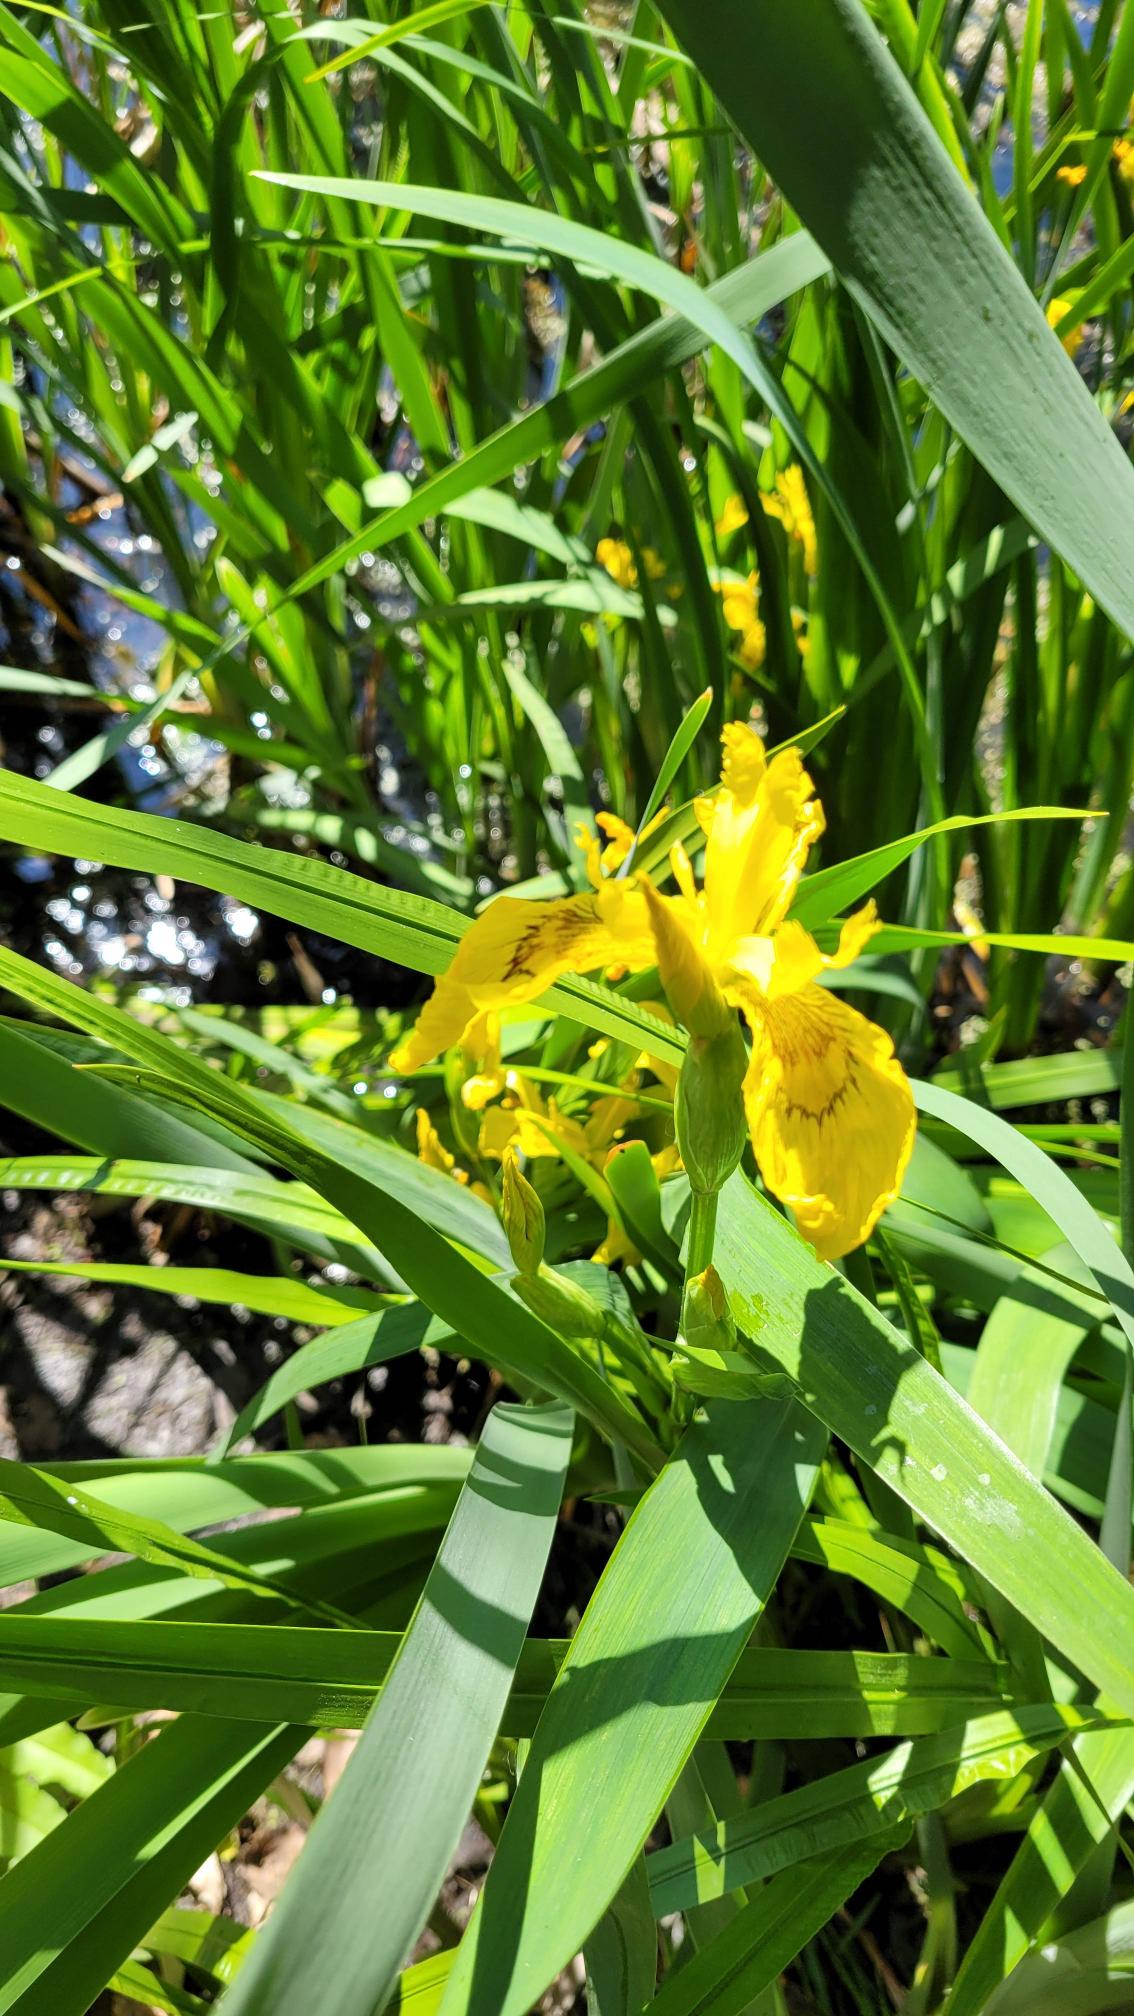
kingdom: Plantae
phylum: Tracheophyta
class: Liliopsida
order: Asparagales
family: Iridaceae
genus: Iris
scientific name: Iris pseudacorus
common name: Gul iris
